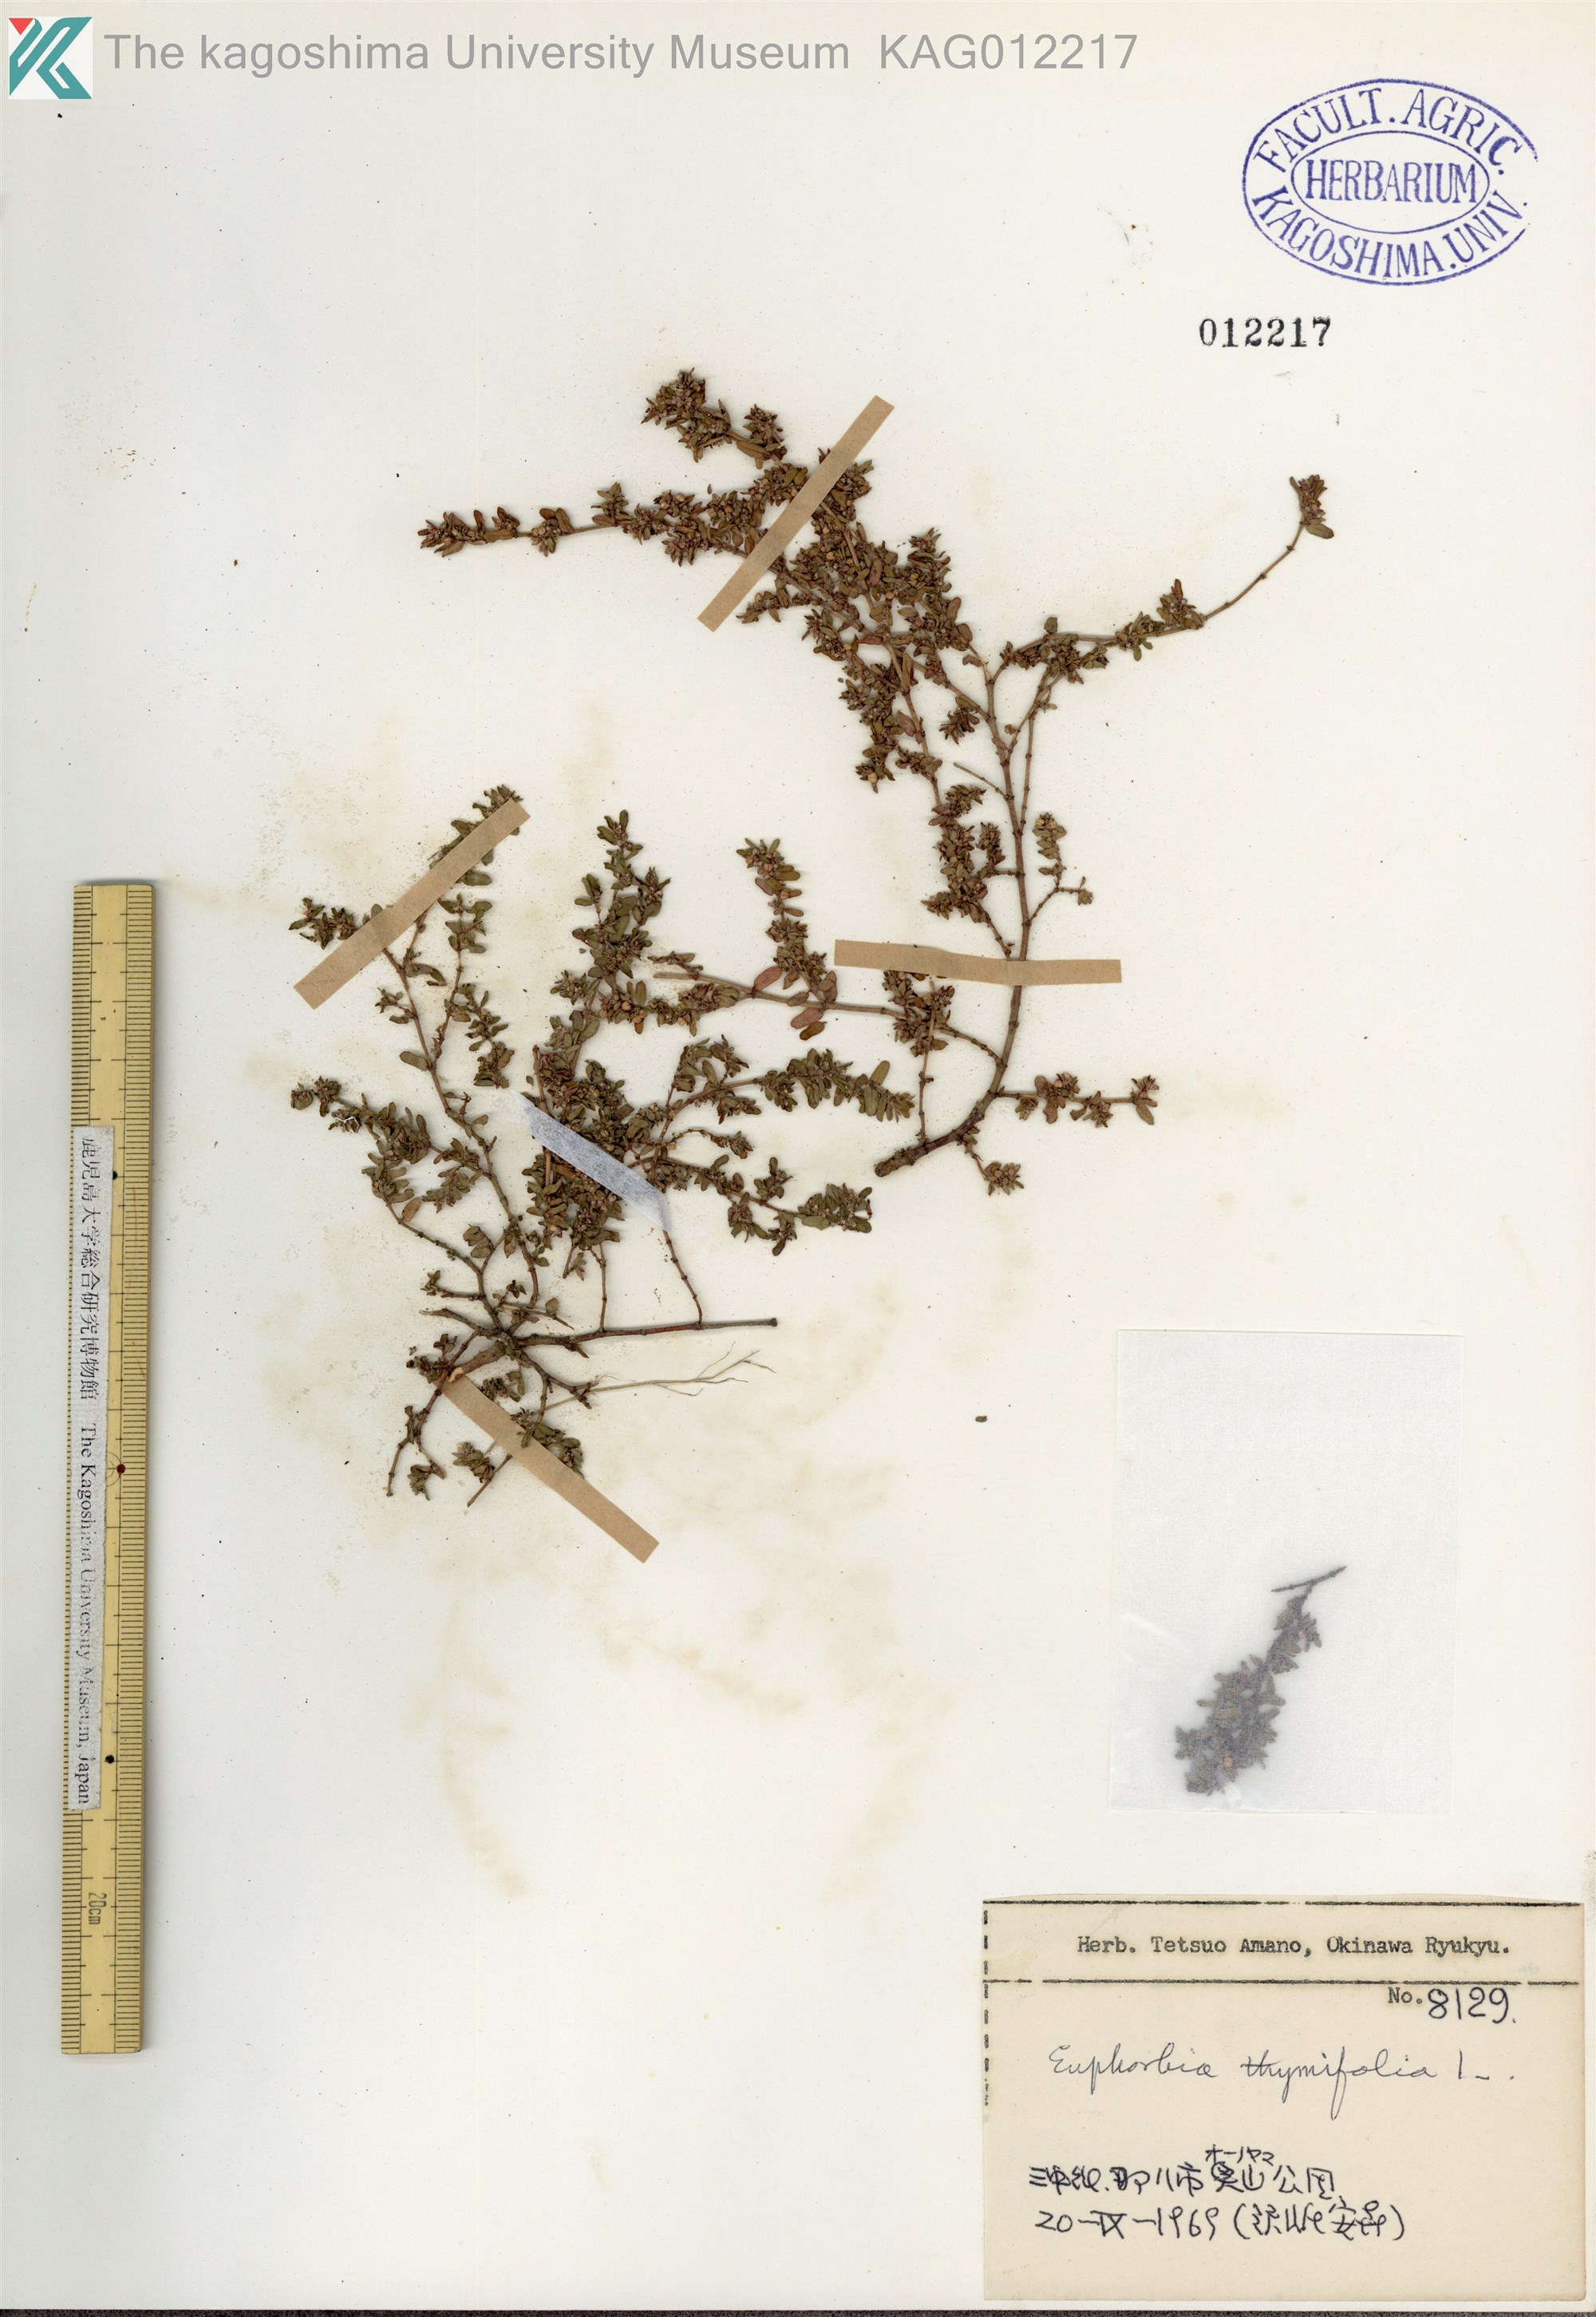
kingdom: Plantae
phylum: Tracheophyta
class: Magnoliopsida
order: Malpighiales
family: Euphorbiaceae
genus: Euphorbia
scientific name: Euphorbia thymifolia
